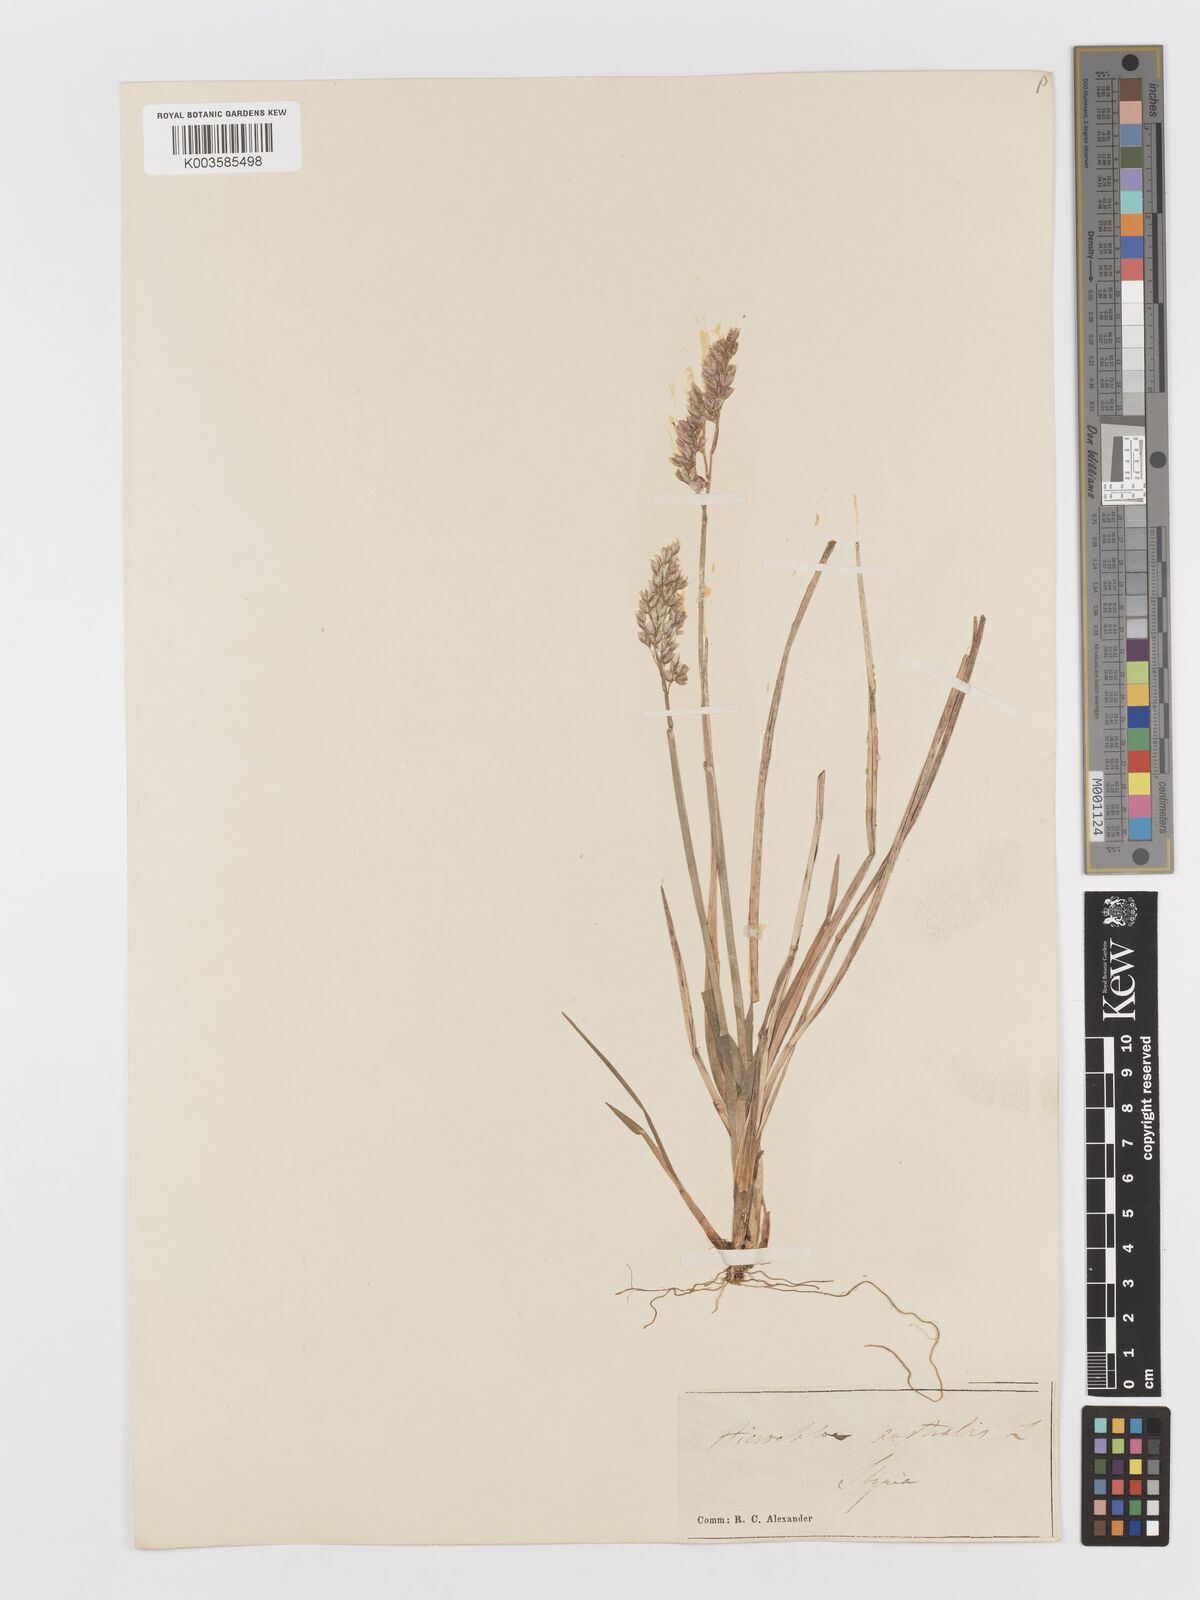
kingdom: Plantae
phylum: Tracheophyta
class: Liliopsida
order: Poales
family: Poaceae
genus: Anthoxanthum
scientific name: Anthoxanthum australe
